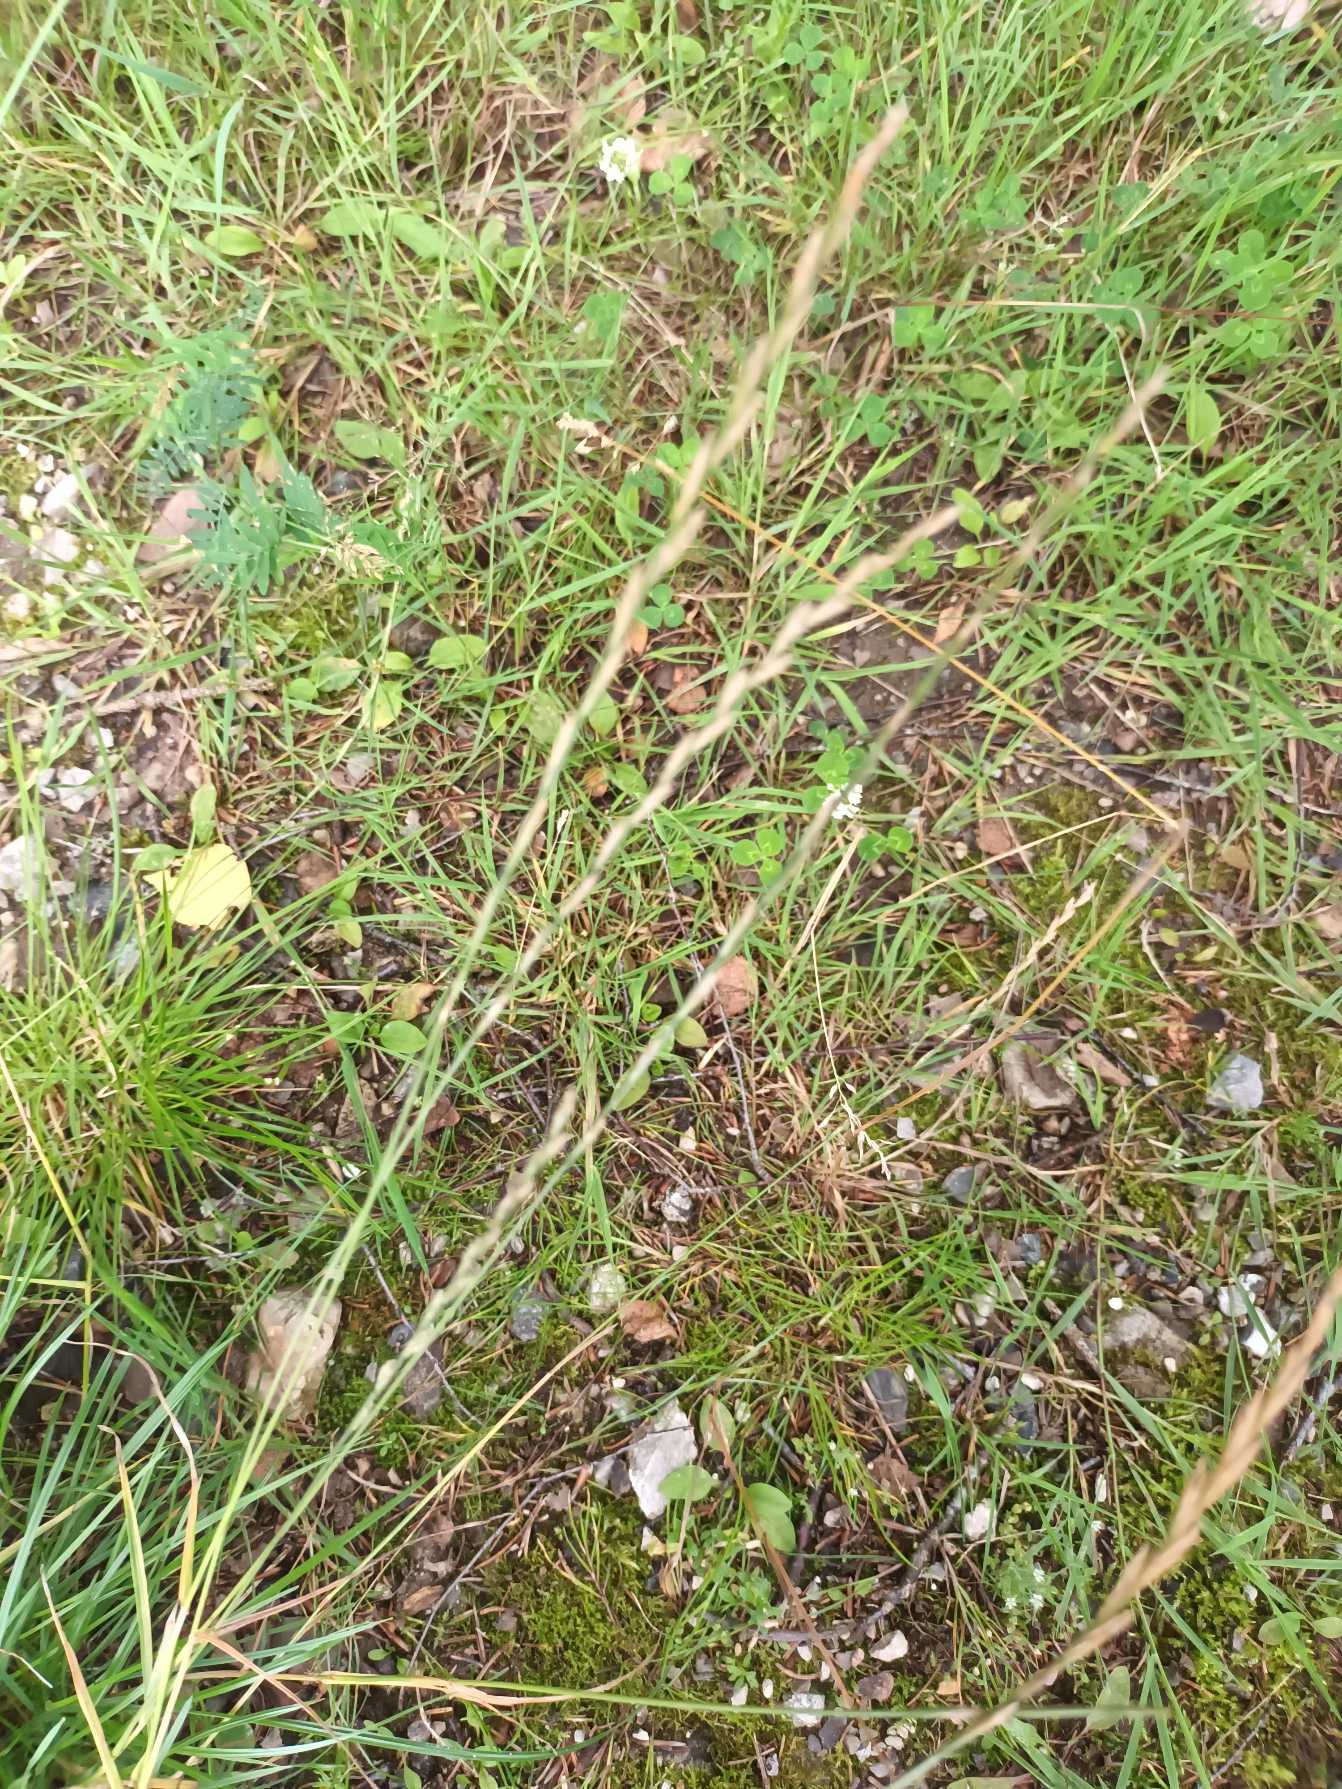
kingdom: Plantae
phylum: Tracheophyta
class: Liliopsida
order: Poales
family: Poaceae
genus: Lolium
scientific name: Lolium perenne
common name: Almindelig rajgræs
